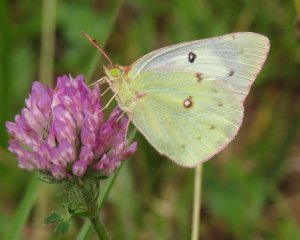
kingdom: Animalia
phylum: Arthropoda
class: Insecta
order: Lepidoptera
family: Pieridae
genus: Colias
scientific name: Colias eurytheme
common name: Orange Sulphur
